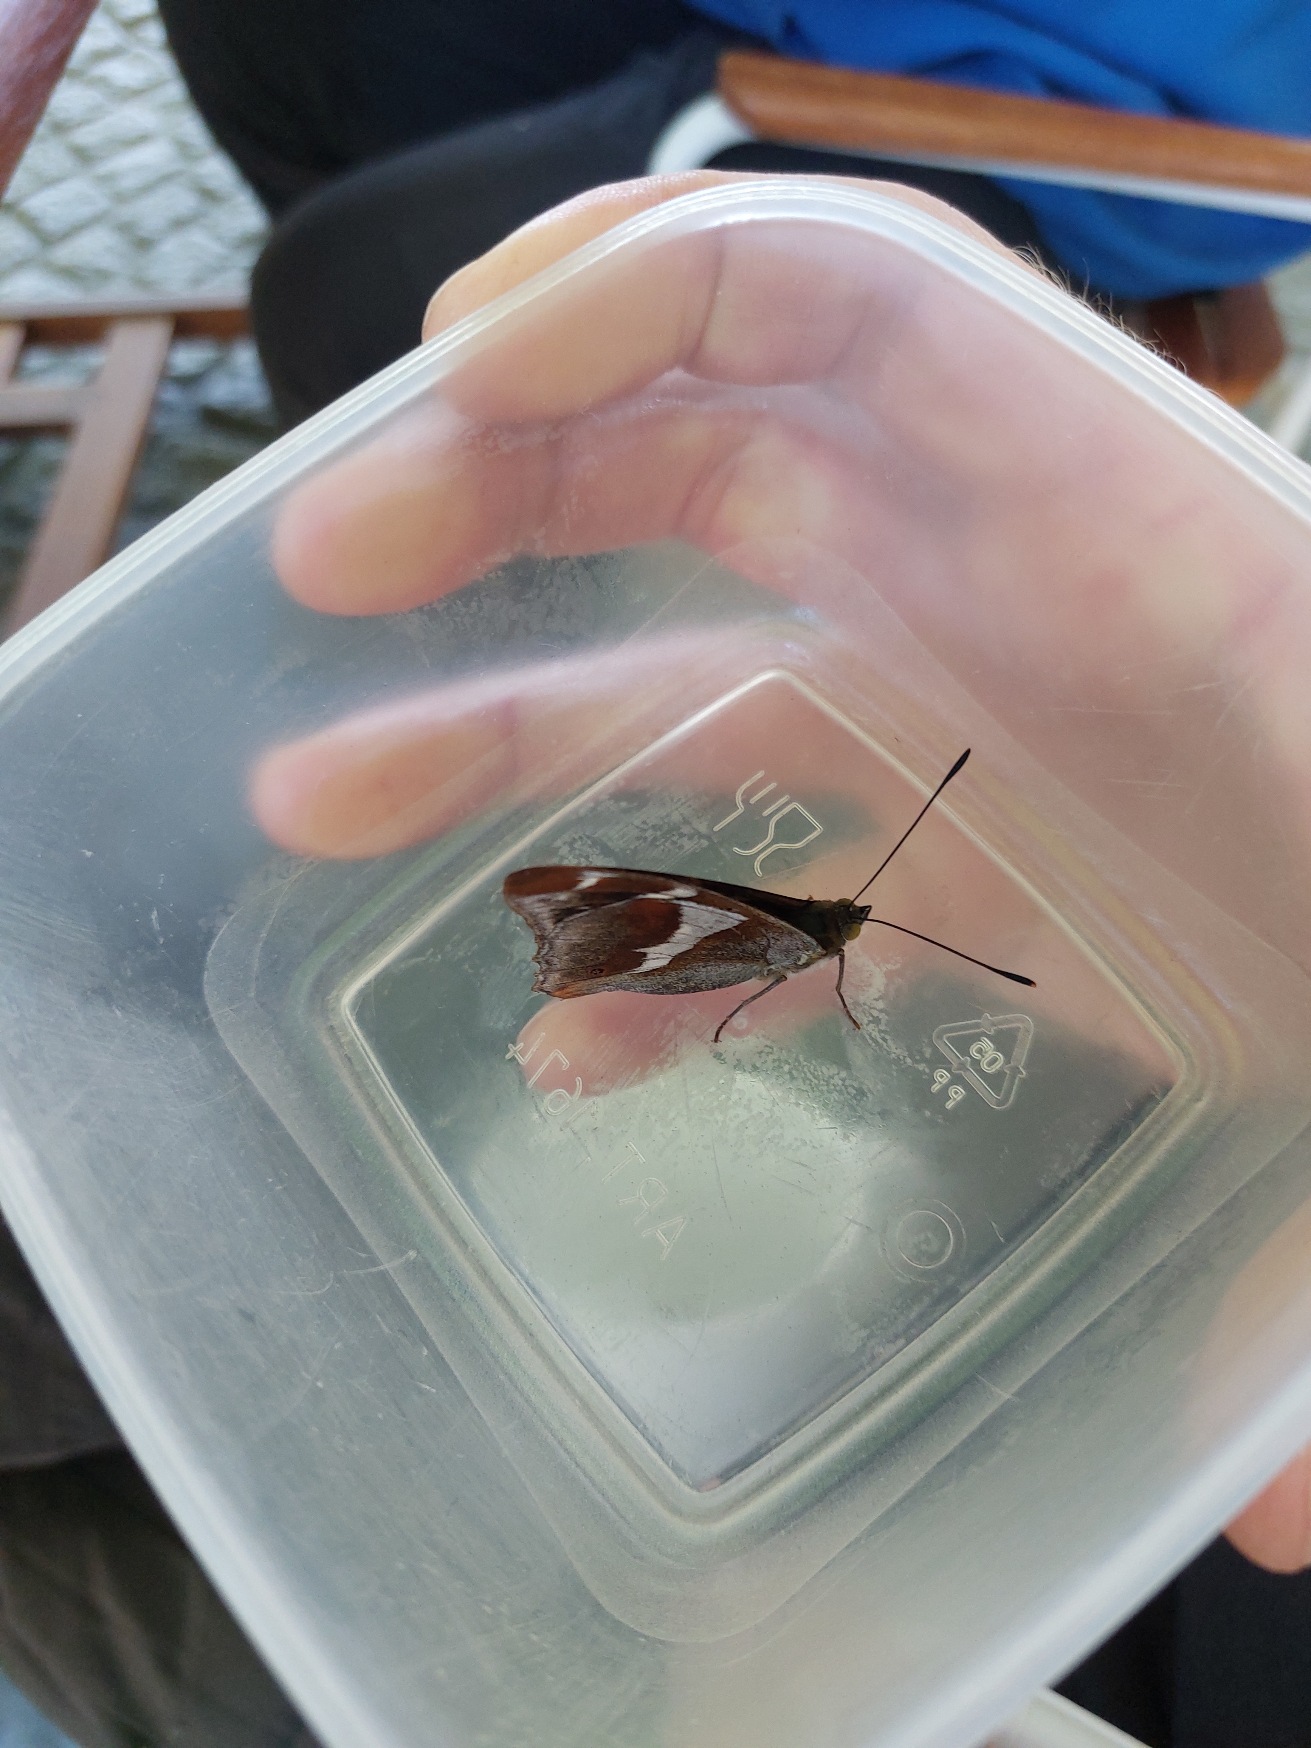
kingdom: Animalia
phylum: Arthropoda
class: Insecta
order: Lepidoptera
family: Nymphalidae
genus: Apatura
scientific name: Apatura iris
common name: Iris
